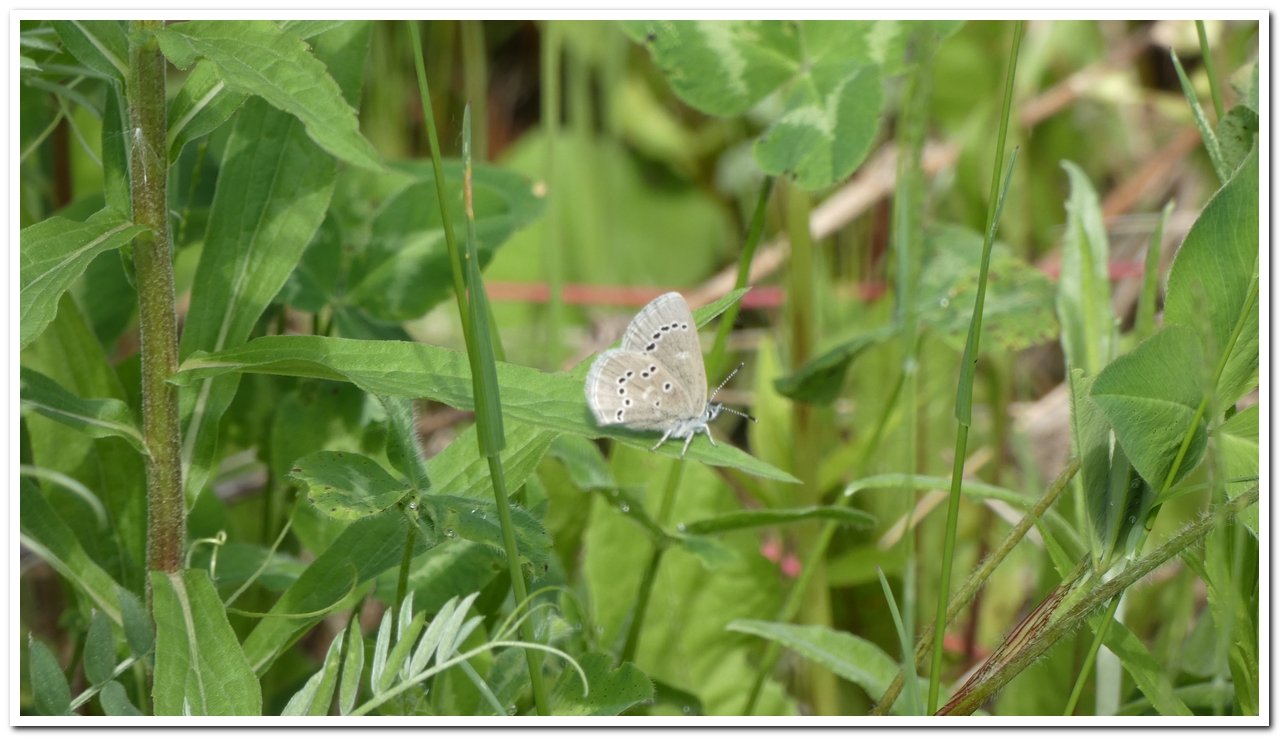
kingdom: Animalia
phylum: Arthropoda
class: Insecta
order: Lepidoptera
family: Lycaenidae
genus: Glaucopsyche
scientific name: Glaucopsyche lygdamus
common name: Silvery Blue
